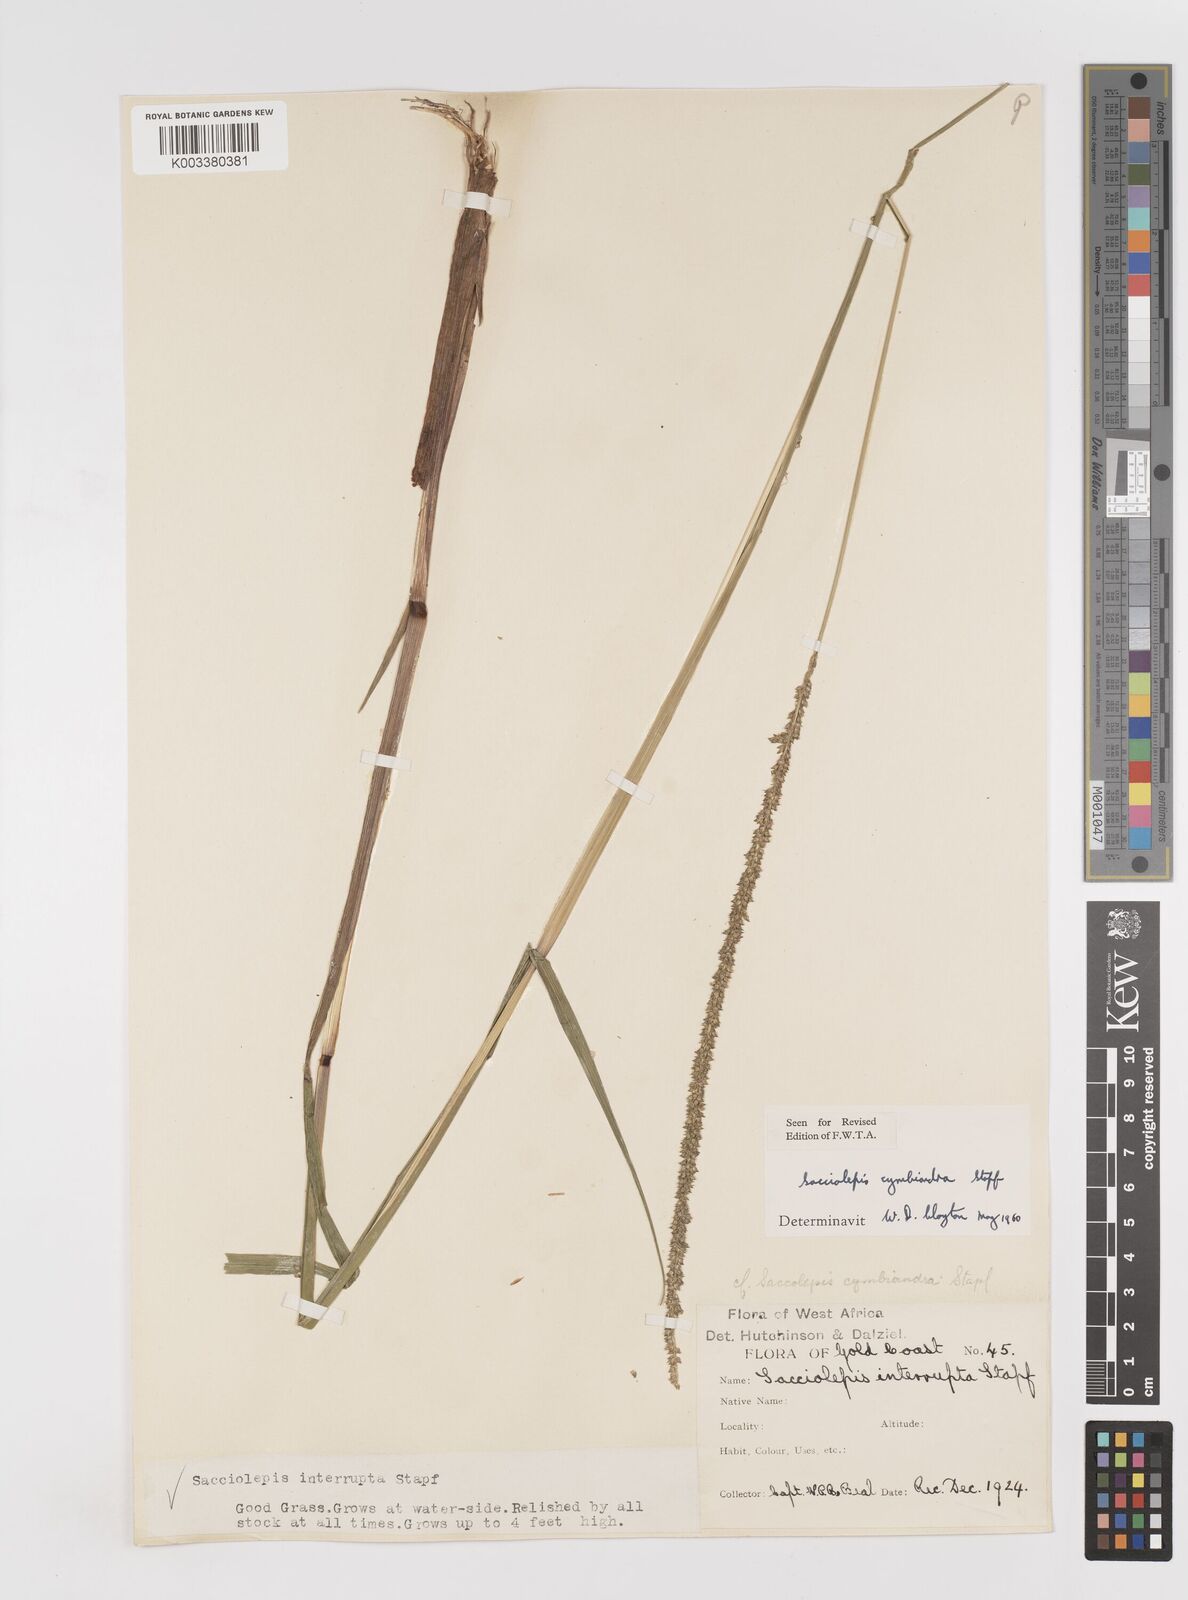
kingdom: Plantae
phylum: Tracheophyta
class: Liliopsida
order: Poales
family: Poaceae
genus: Sacciolepis
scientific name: Sacciolepis cymbiandra
